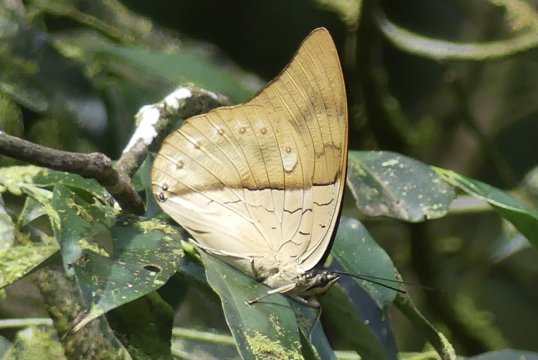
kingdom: Animalia
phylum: Arthropoda
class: Insecta
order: Lepidoptera
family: Nymphalidae
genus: Prepona
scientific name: Prepona meander
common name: White-spotted Prepona
